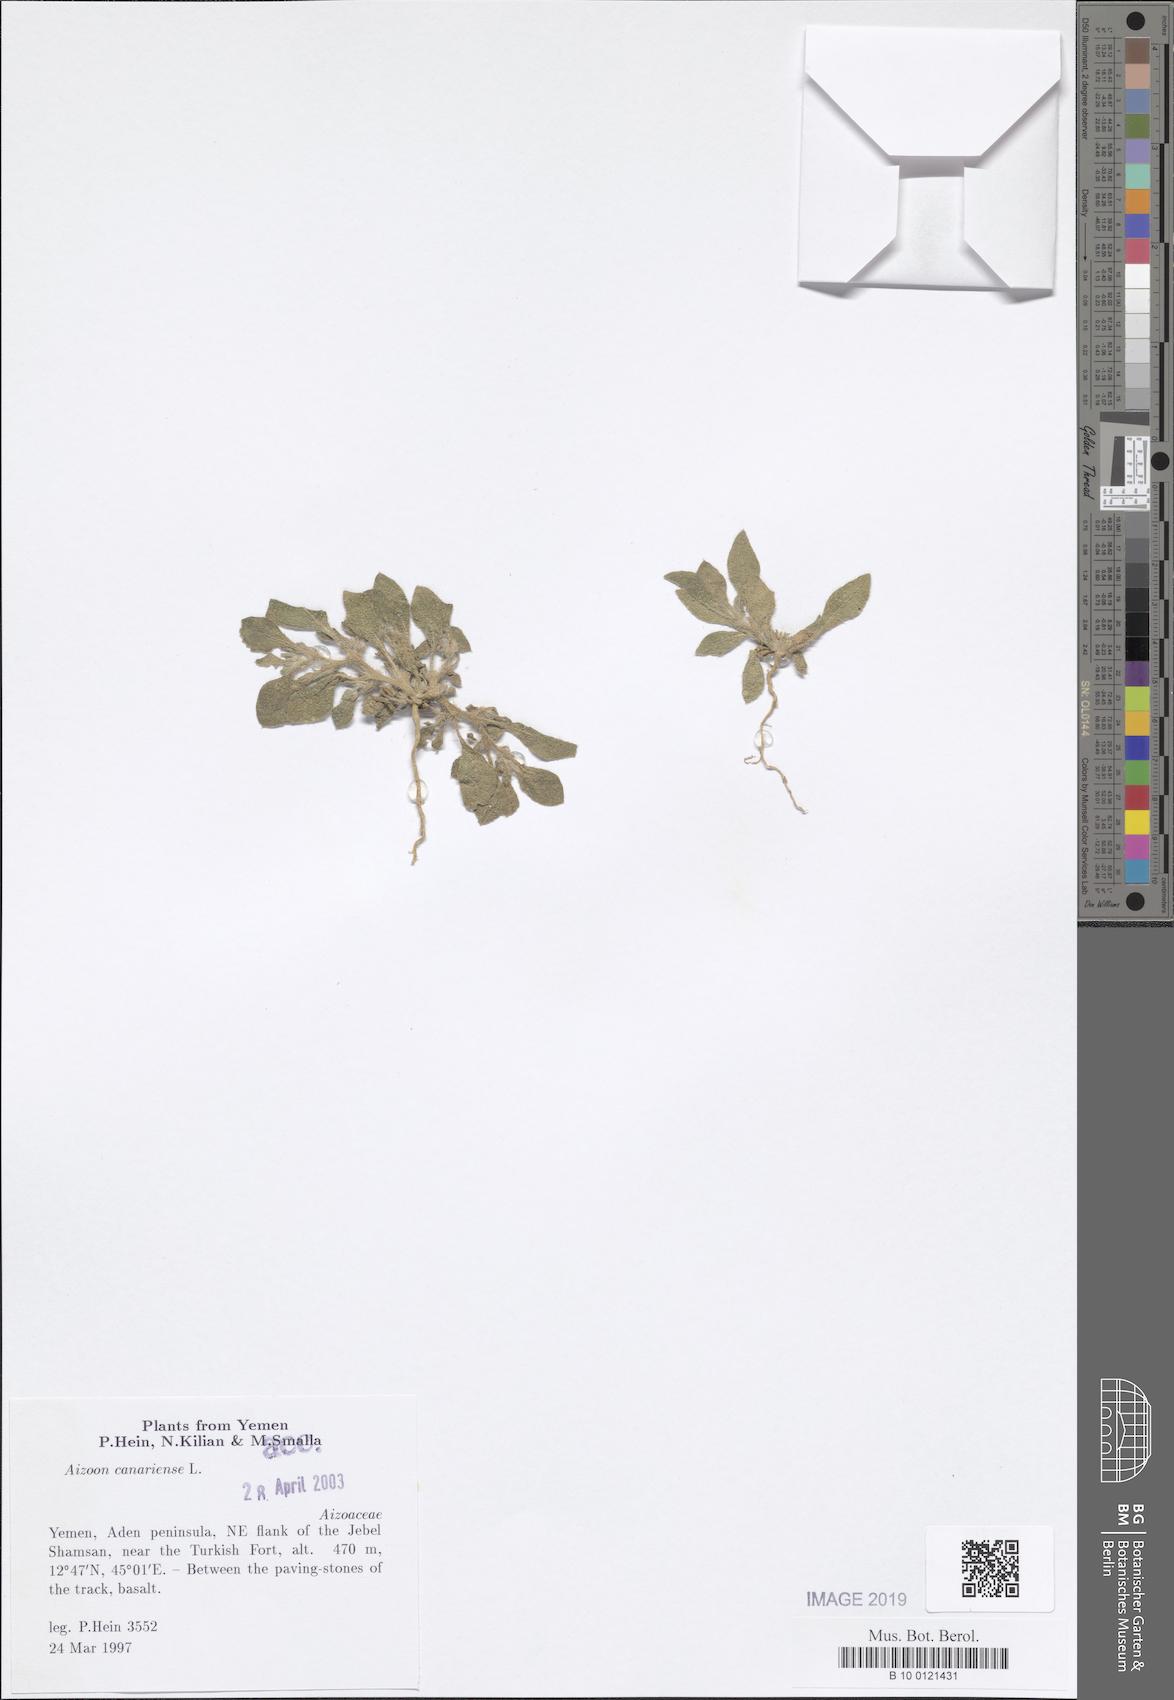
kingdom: Plantae
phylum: Tracheophyta
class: Magnoliopsida
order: Caryophyllales
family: Aizoaceae
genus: Aizoon
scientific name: Aizoon canariense
